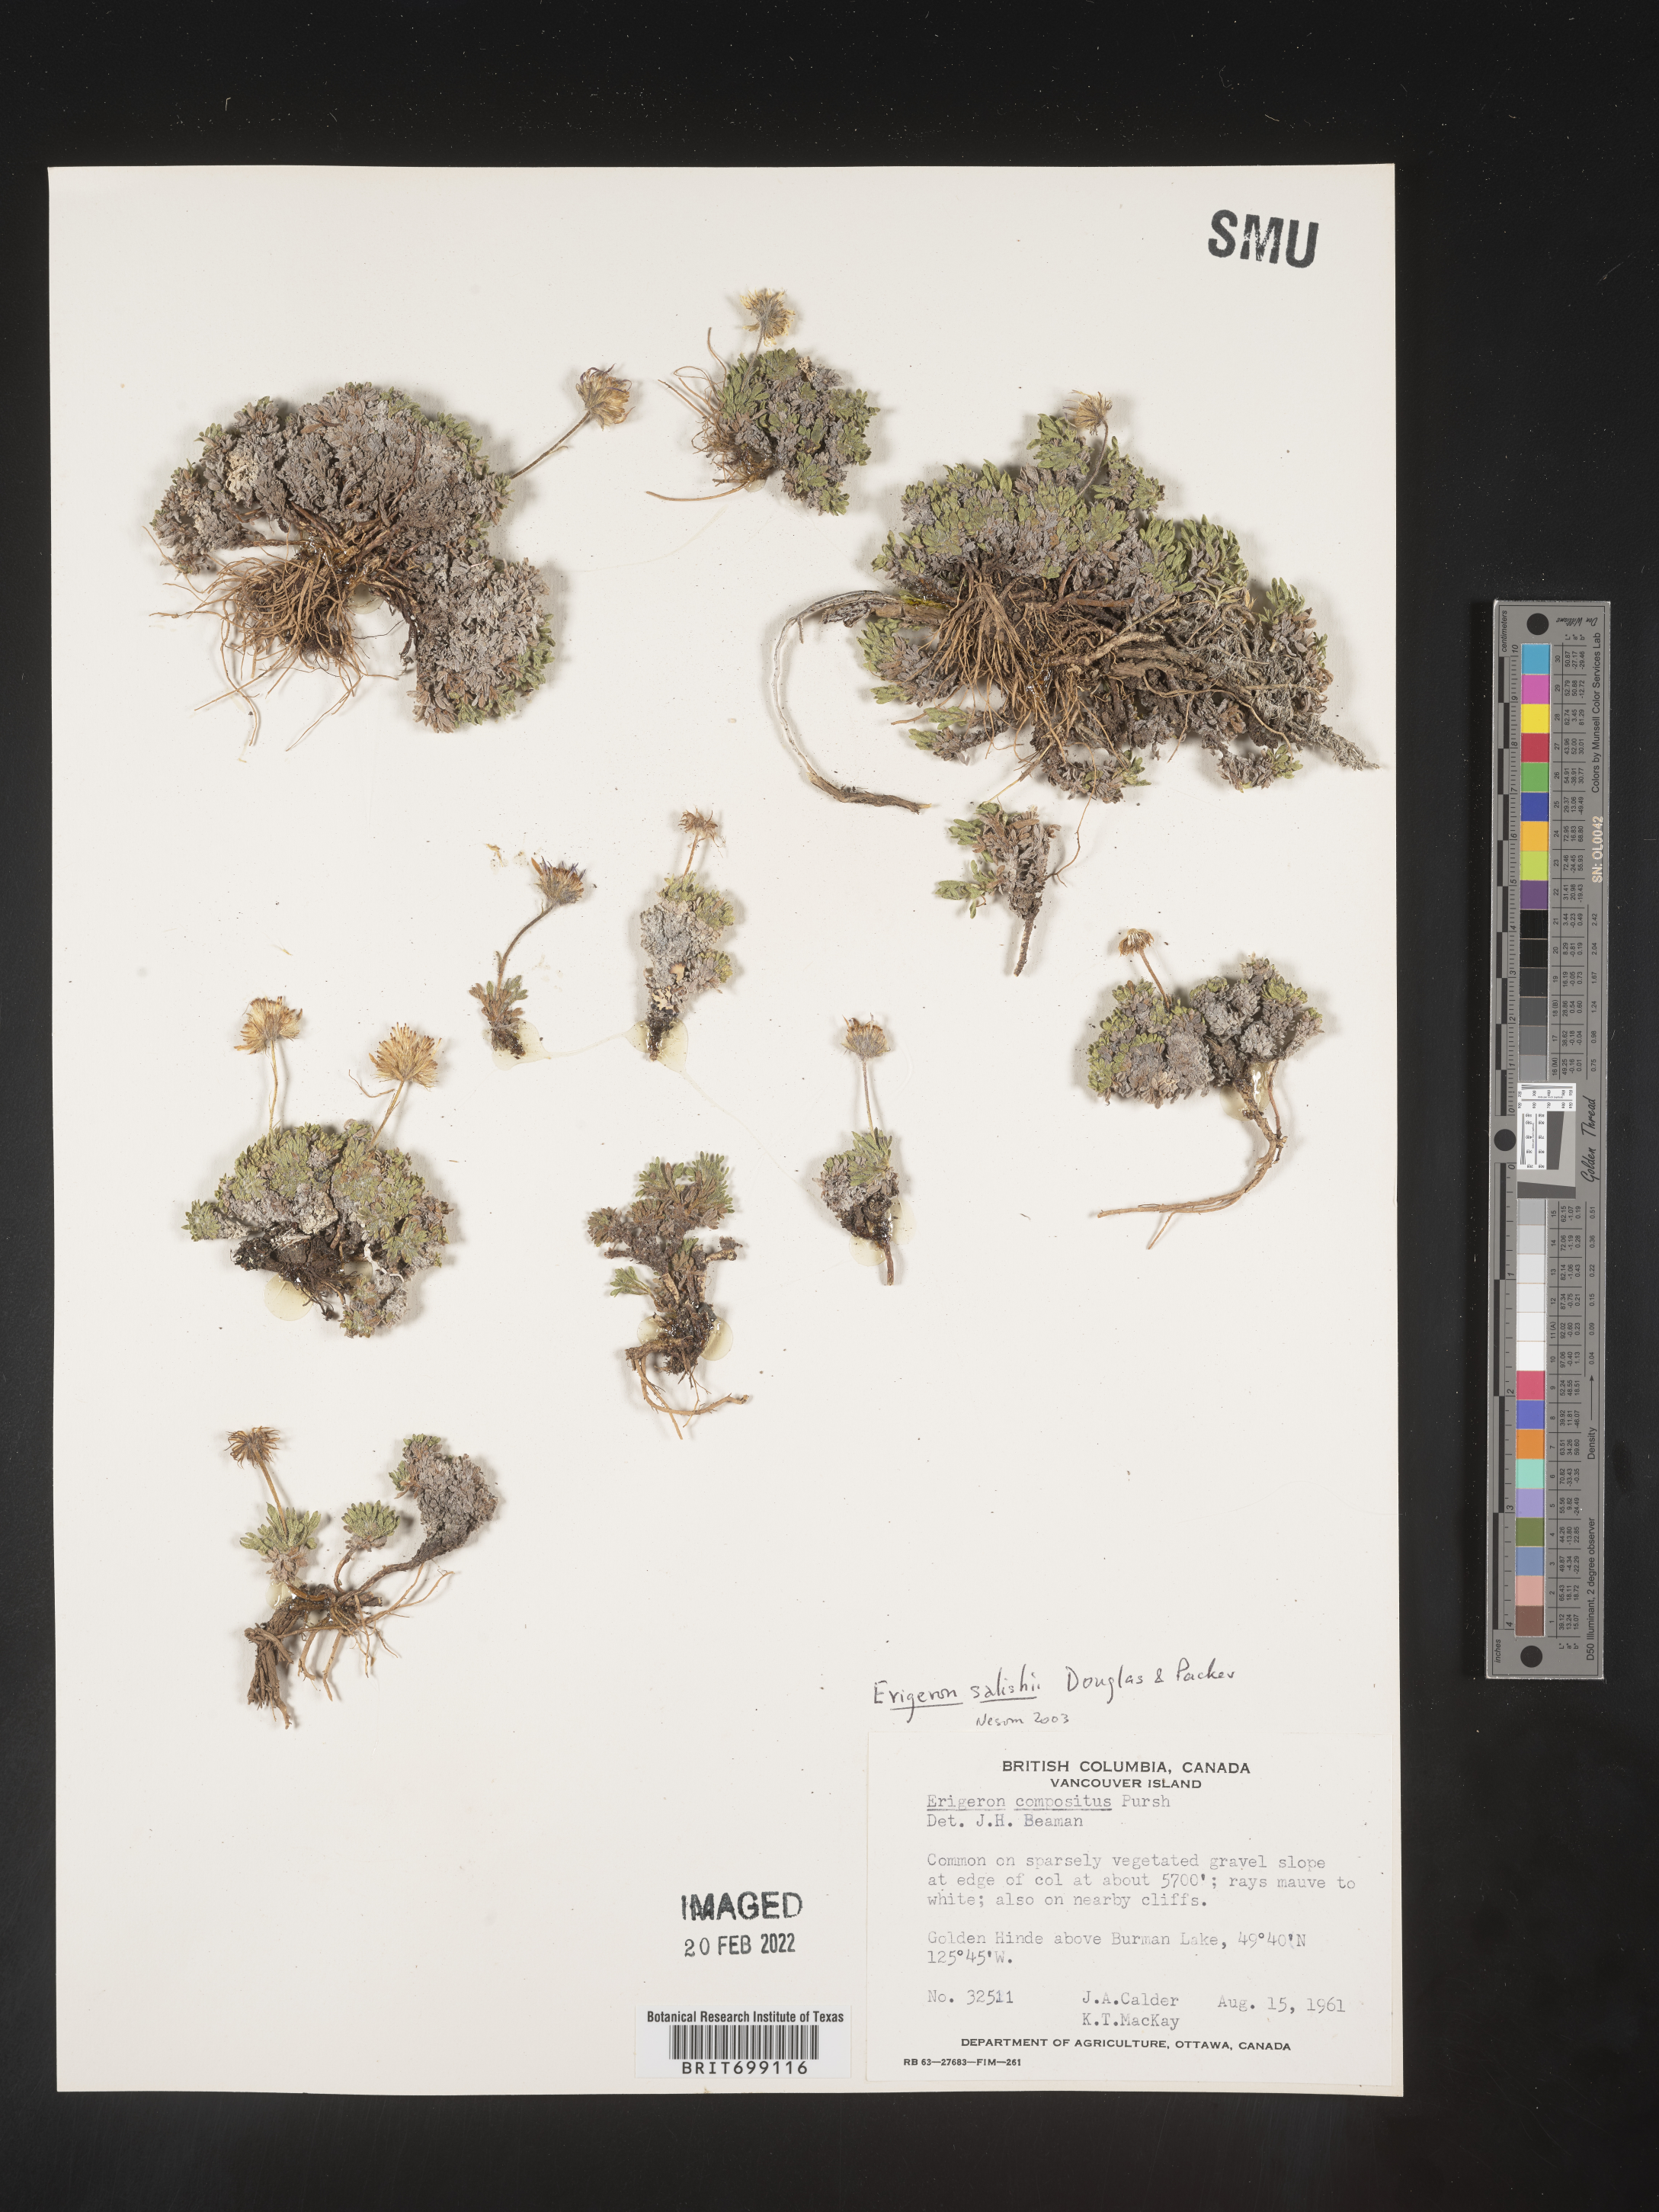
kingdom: Plantae
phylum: Tracheophyta
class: Magnoliopsida
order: Asterales
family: Asteraceae
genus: Erigeron
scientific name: Erigeron salishii
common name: Salish daisy
